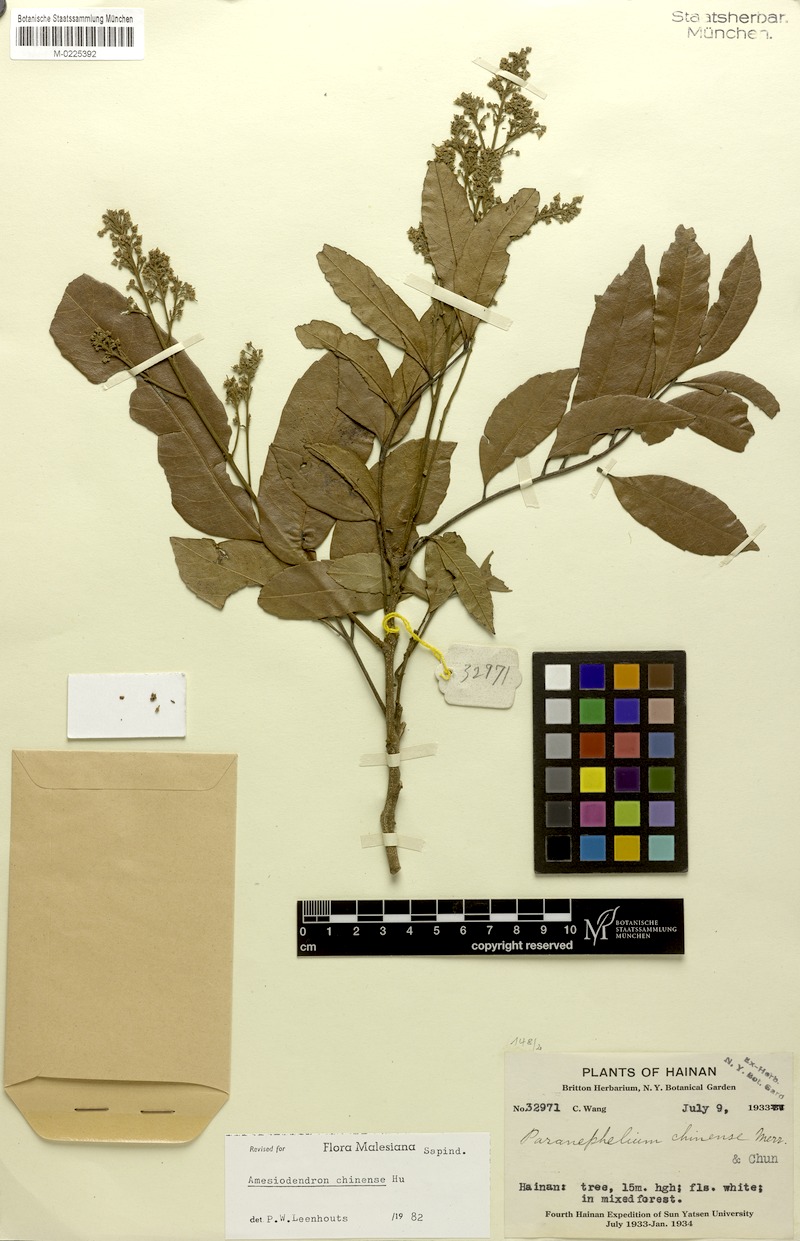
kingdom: Plantae
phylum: Tracheophyta
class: Magnoliopsida
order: Sapindales
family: Sapindaceae
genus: Amesiodendron
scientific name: Amesiodendron chinense
